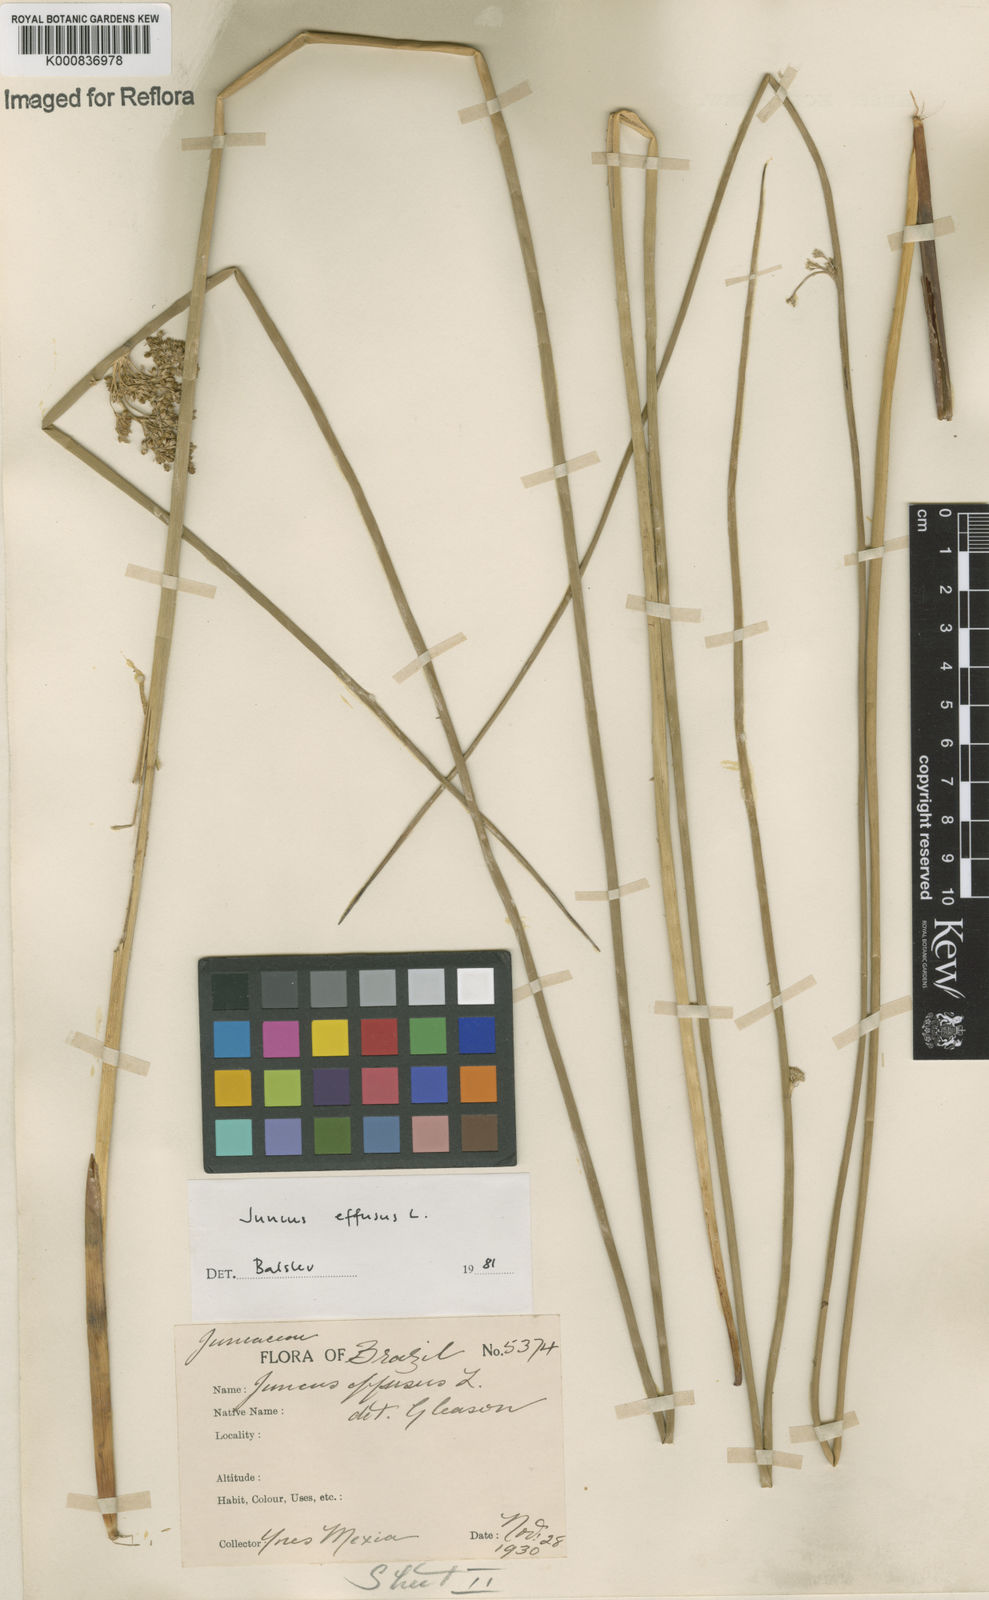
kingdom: Plantae
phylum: Tracheophyta
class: Liliopsida
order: Poales
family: Juncaceae
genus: Juncus
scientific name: Juncus effusus
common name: Soft rush
